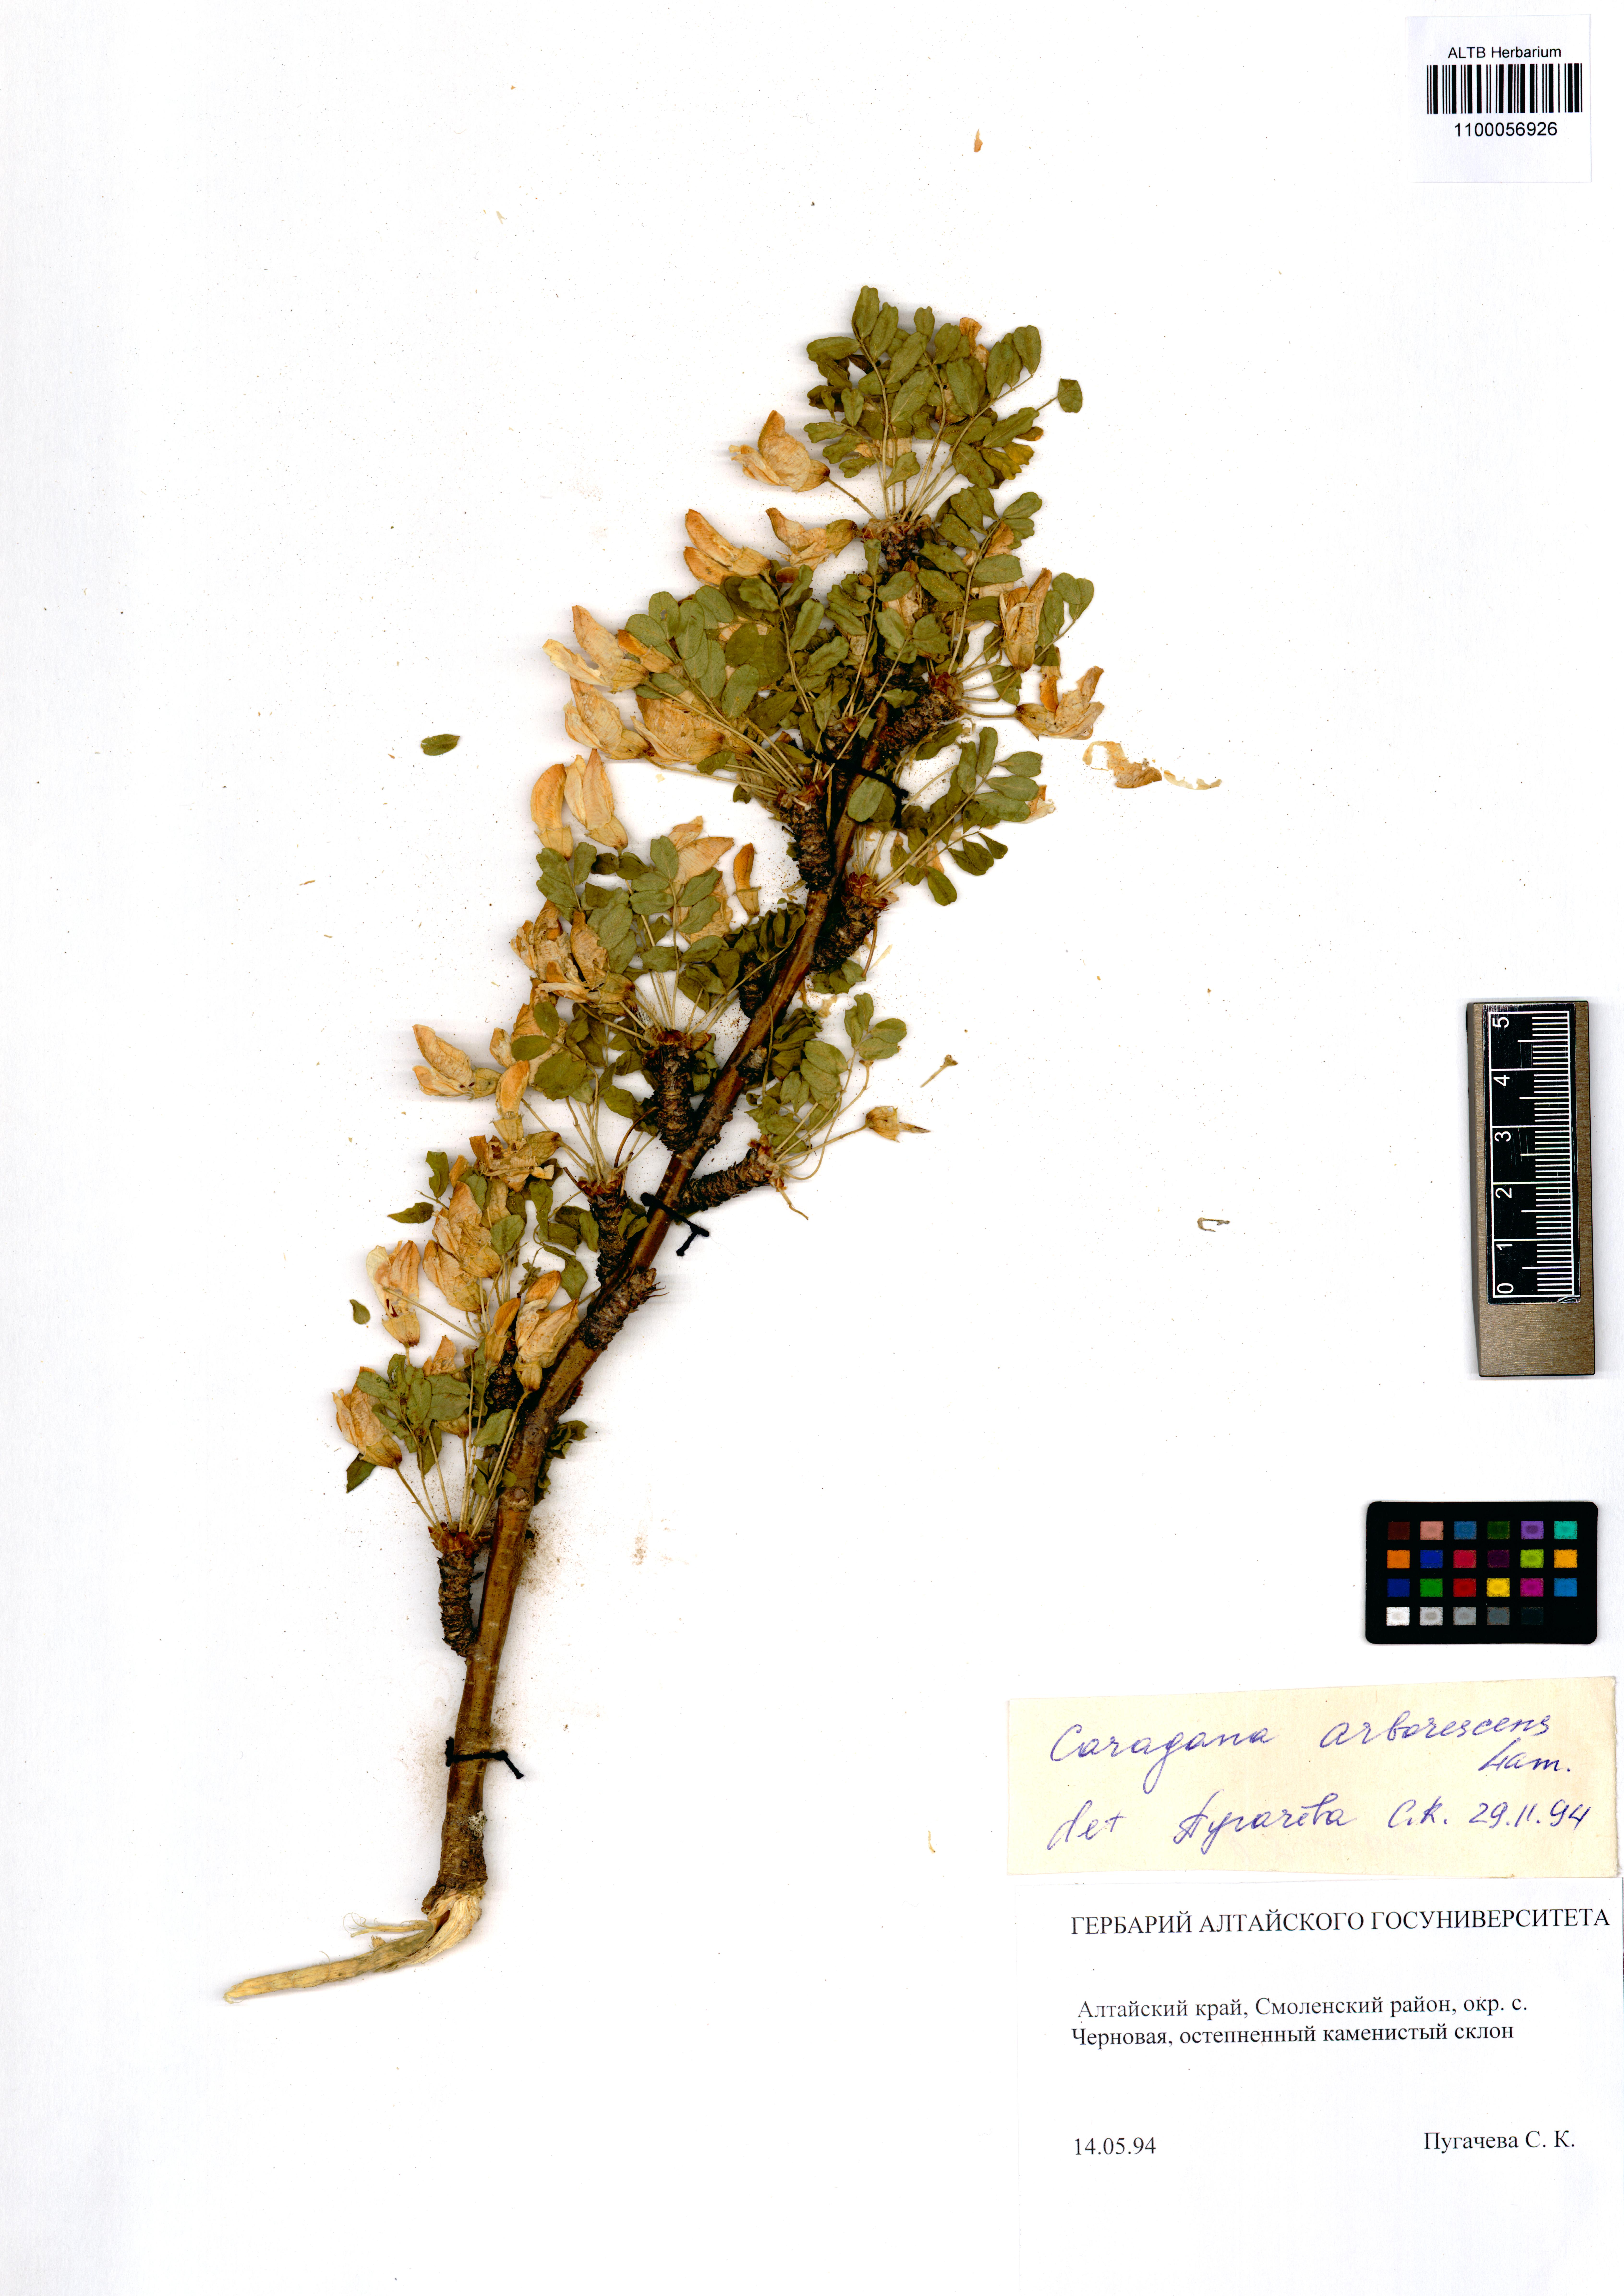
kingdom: Plantae
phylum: Tracheophyta
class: Magnoliopsida
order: Fabales
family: Fabaceae
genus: Caragana
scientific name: Caragana arborescens
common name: Siberian peashrub
